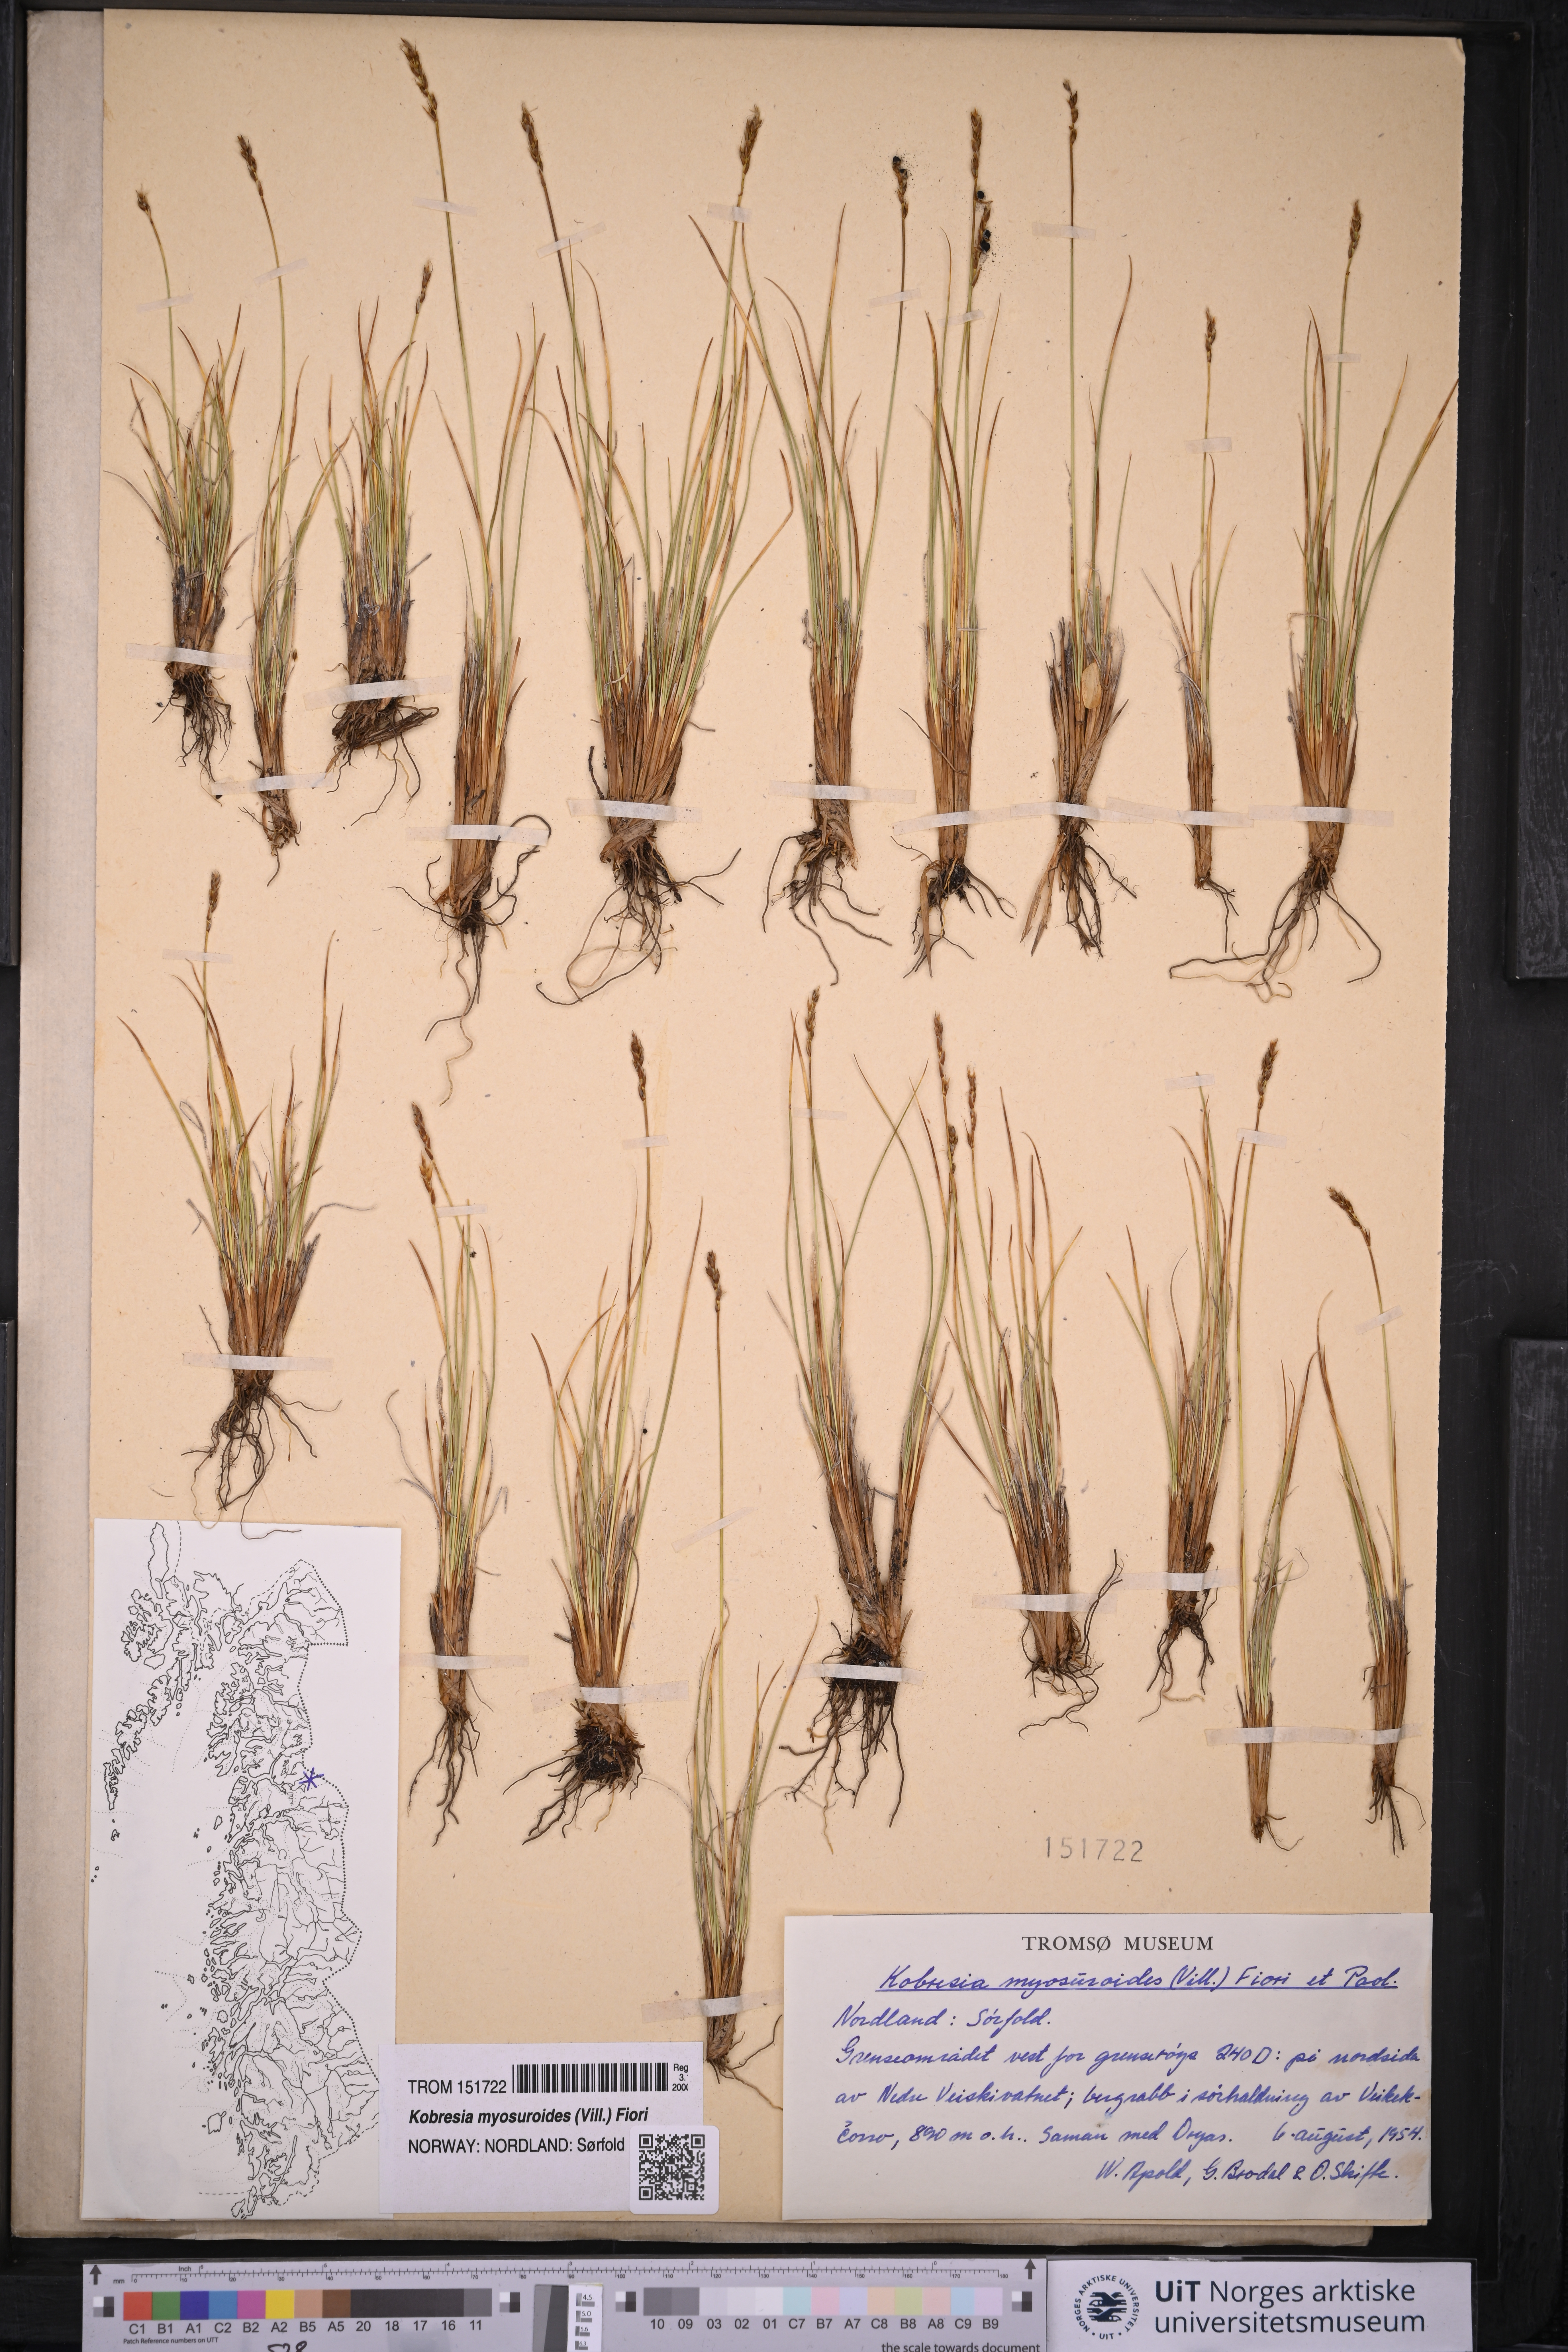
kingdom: Plantae
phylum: Tracheophyta
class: Liliopsida
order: Poales
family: Cyperaceae
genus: Carex
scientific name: Carex myosuroides
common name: Bellard's bog sedge
